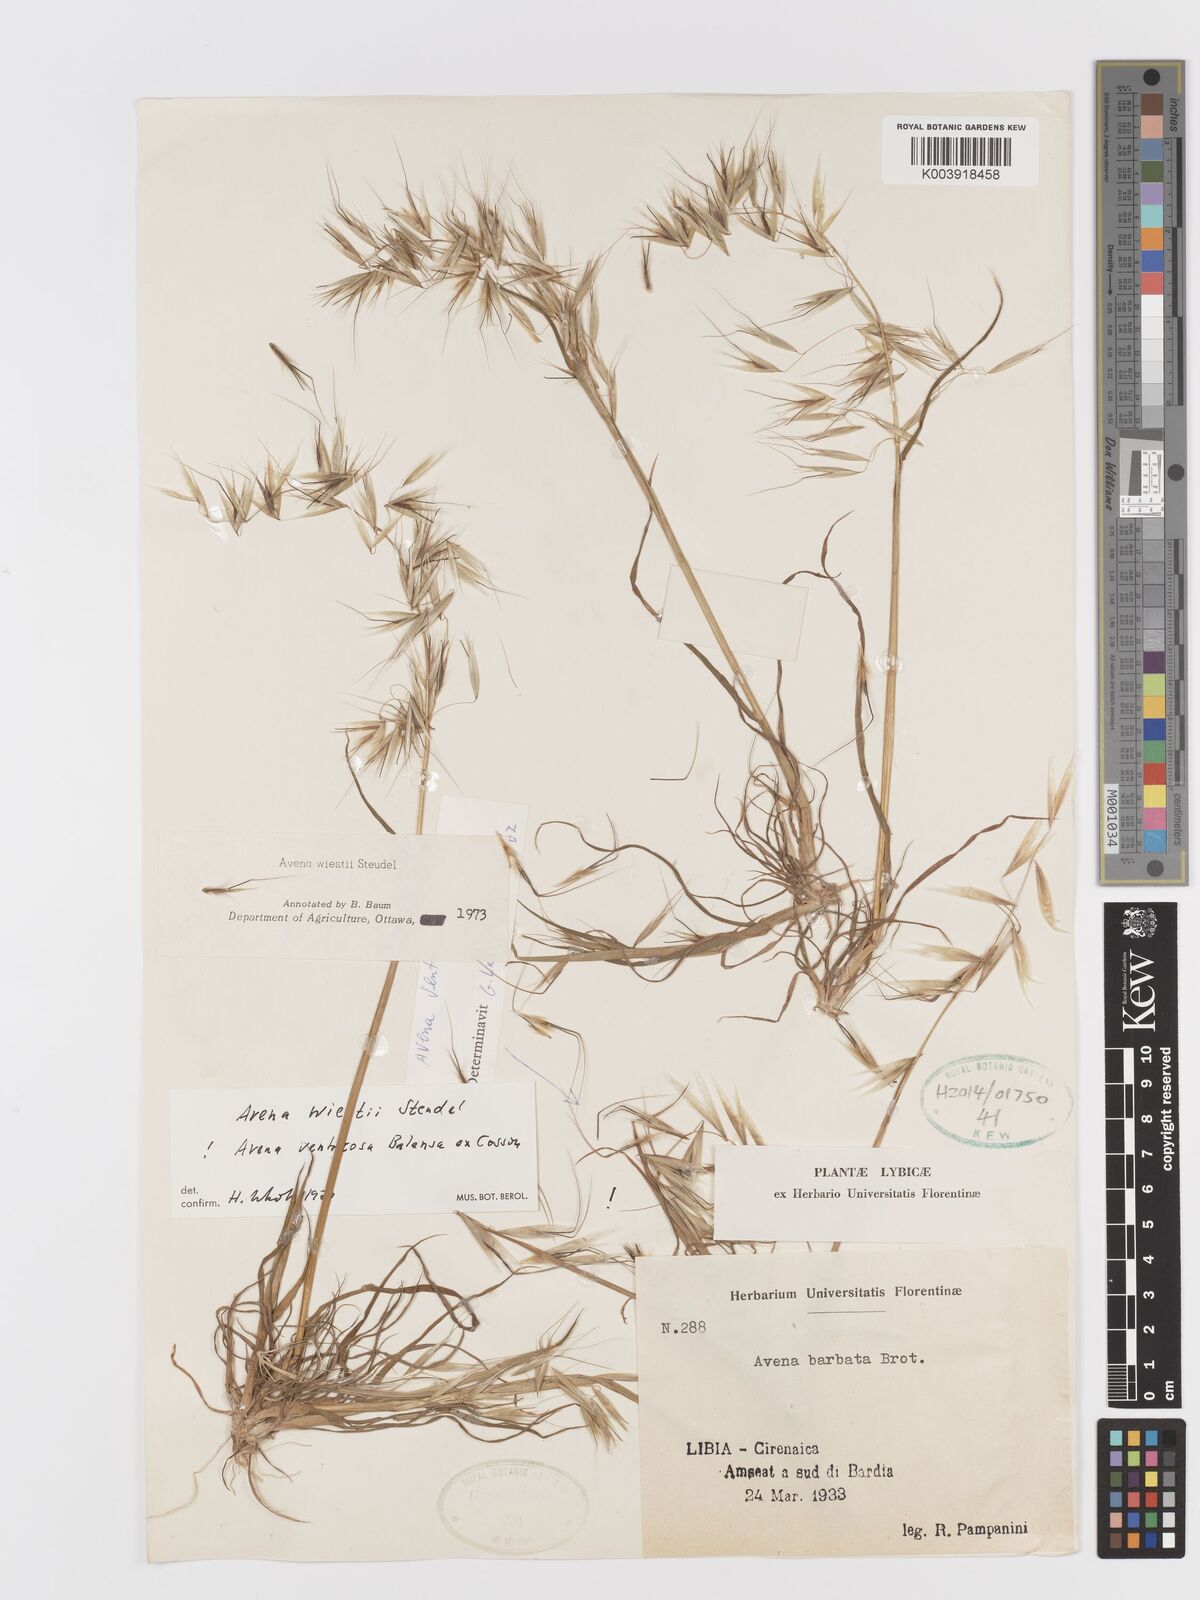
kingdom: Plantae
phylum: Tracheophyta
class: Liliopsida
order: Poales
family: Poaceae
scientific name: Poaceae
